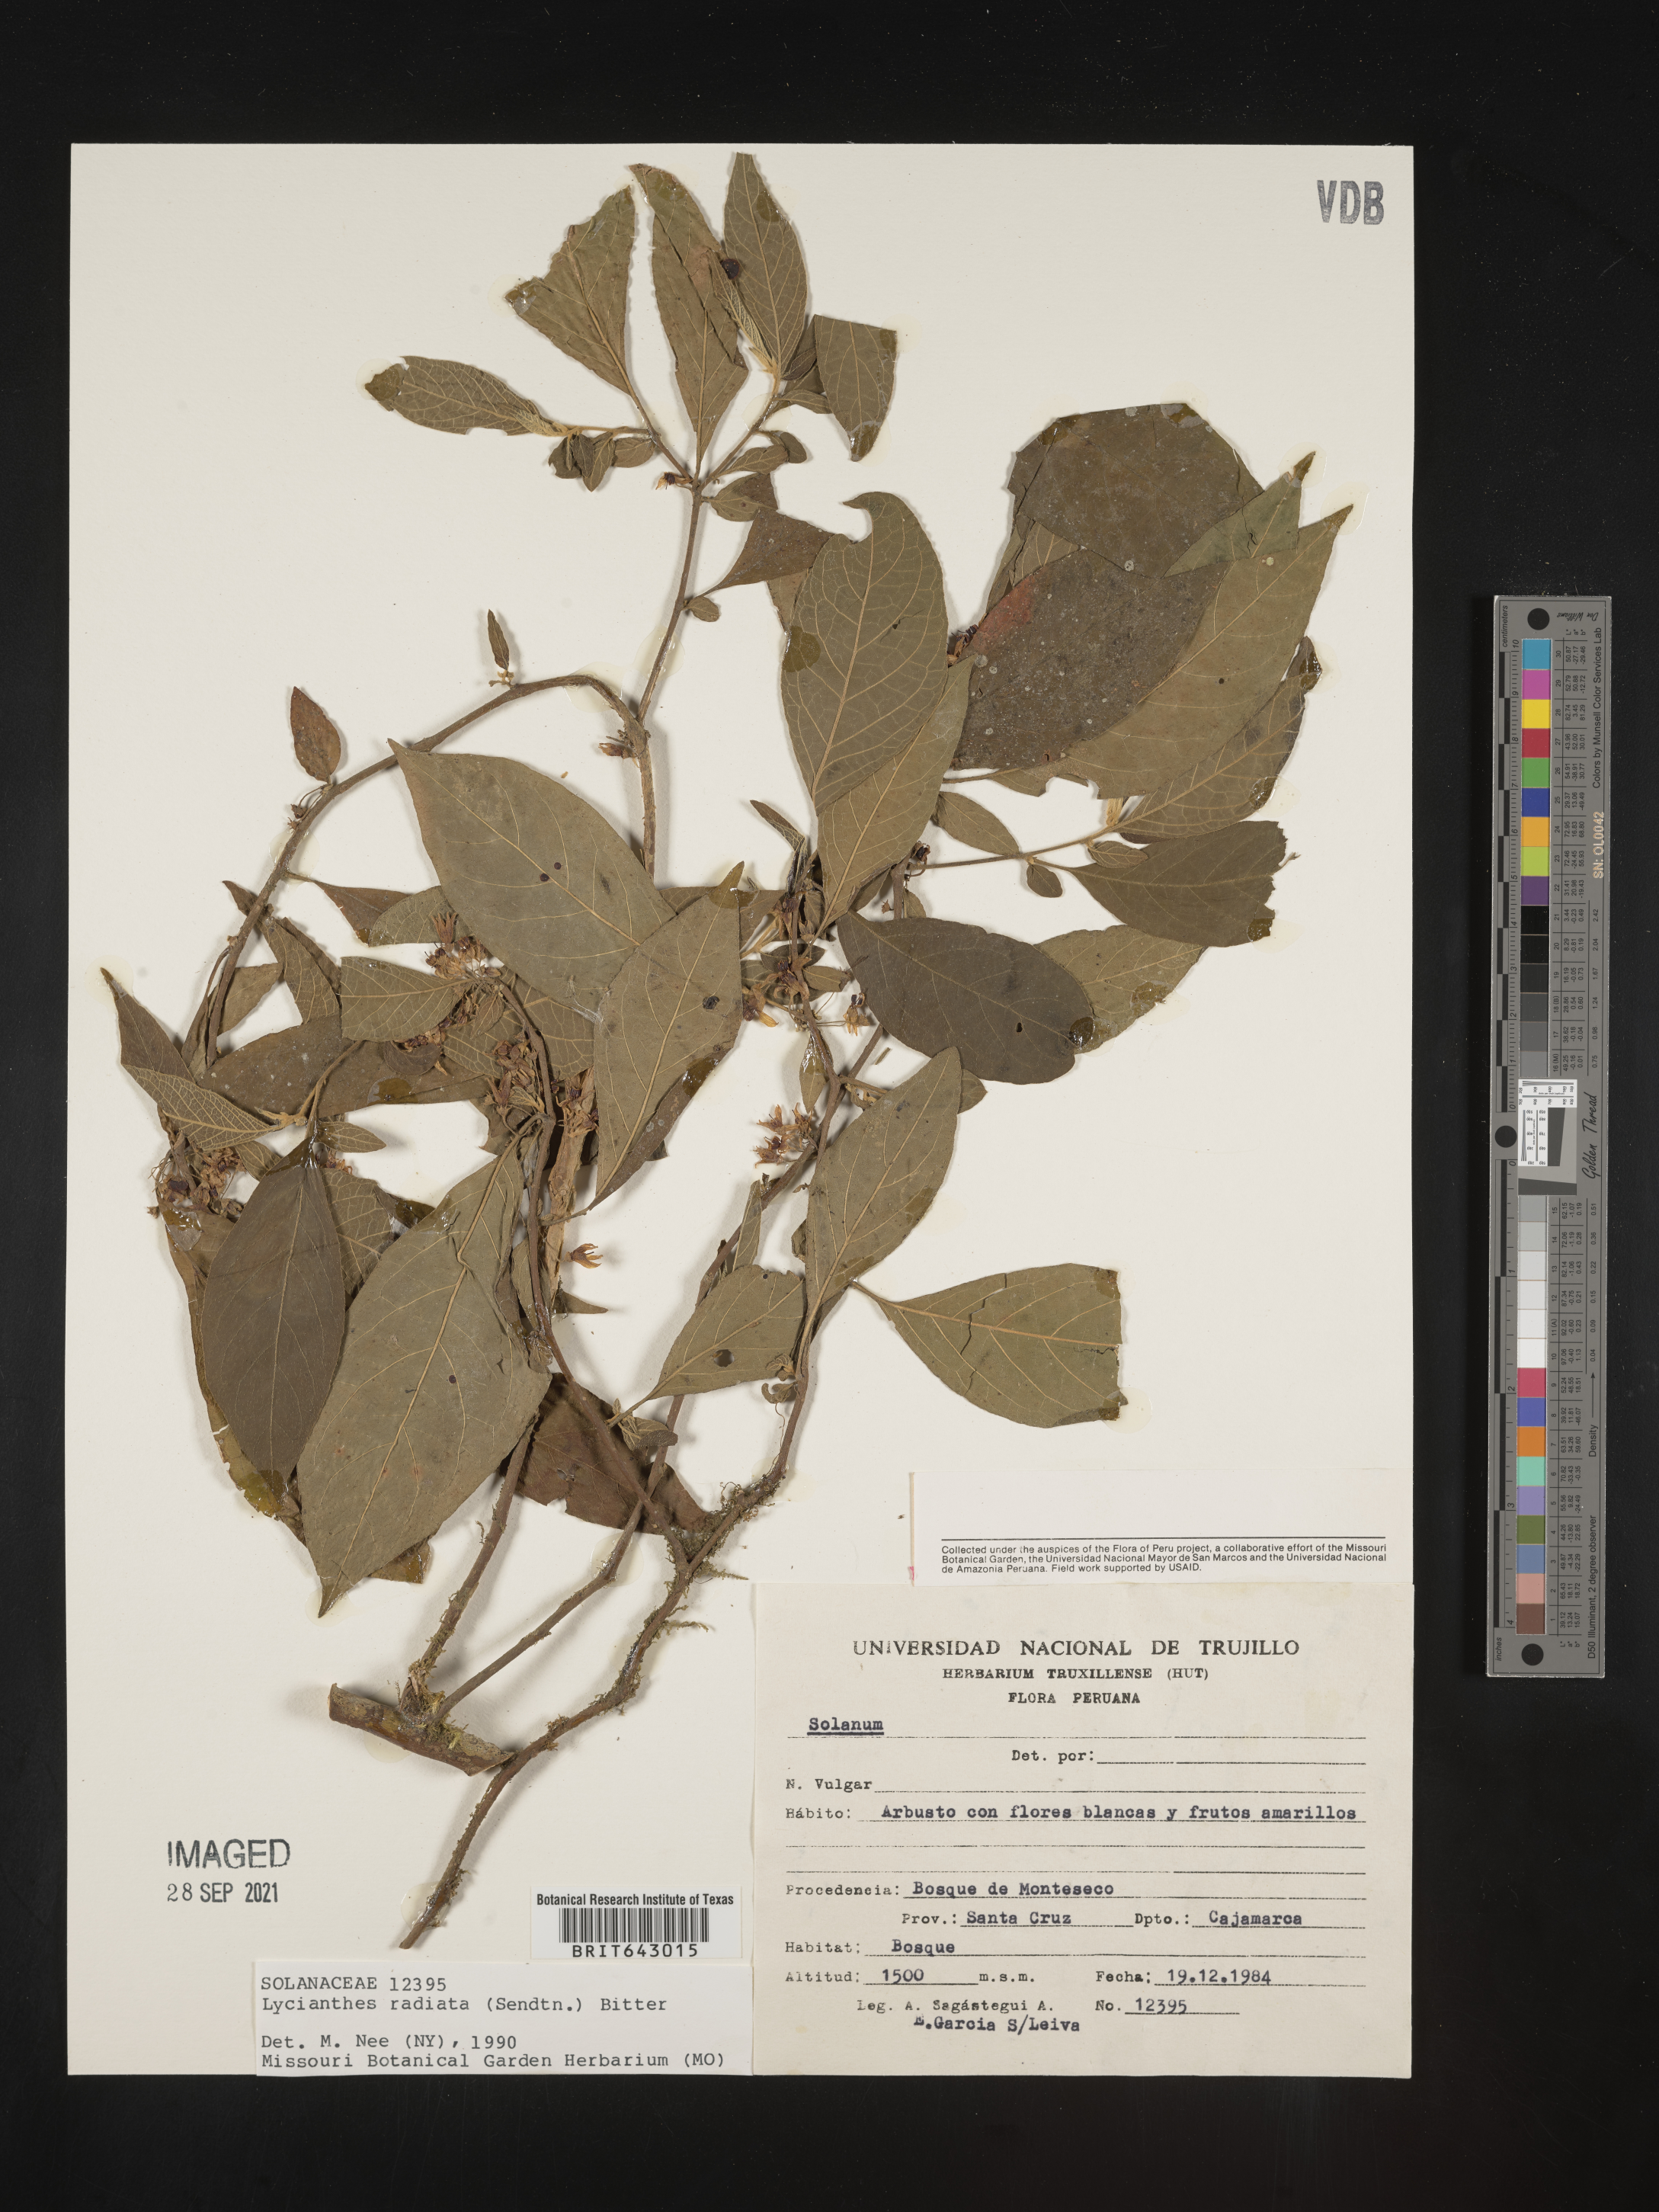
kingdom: Plantae
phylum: Tracheophyta
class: Magnoliopsida
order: Solanales
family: Solanaceae
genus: Lycianthes
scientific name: Lycianthes
